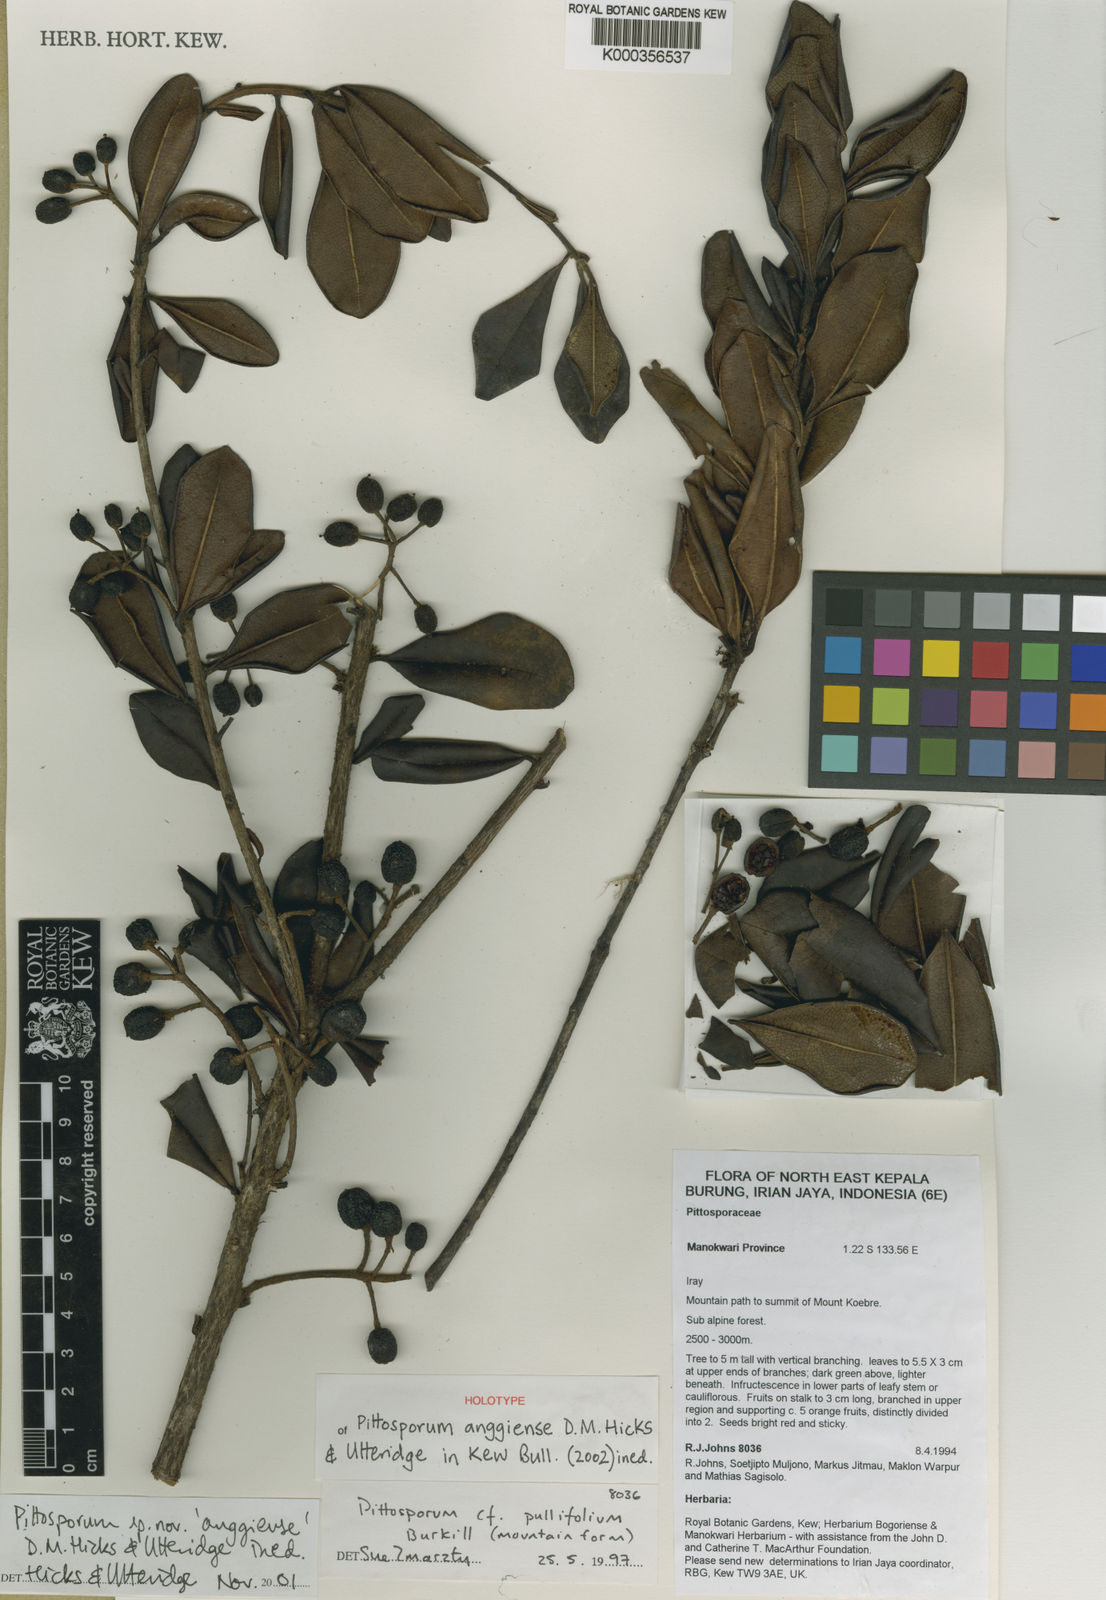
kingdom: Plantae
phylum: Tracheophyta
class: Magnoliopsida
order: Apiales
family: Pittosporaceae
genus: Pittosporum
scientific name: Pittosporum anggiense
